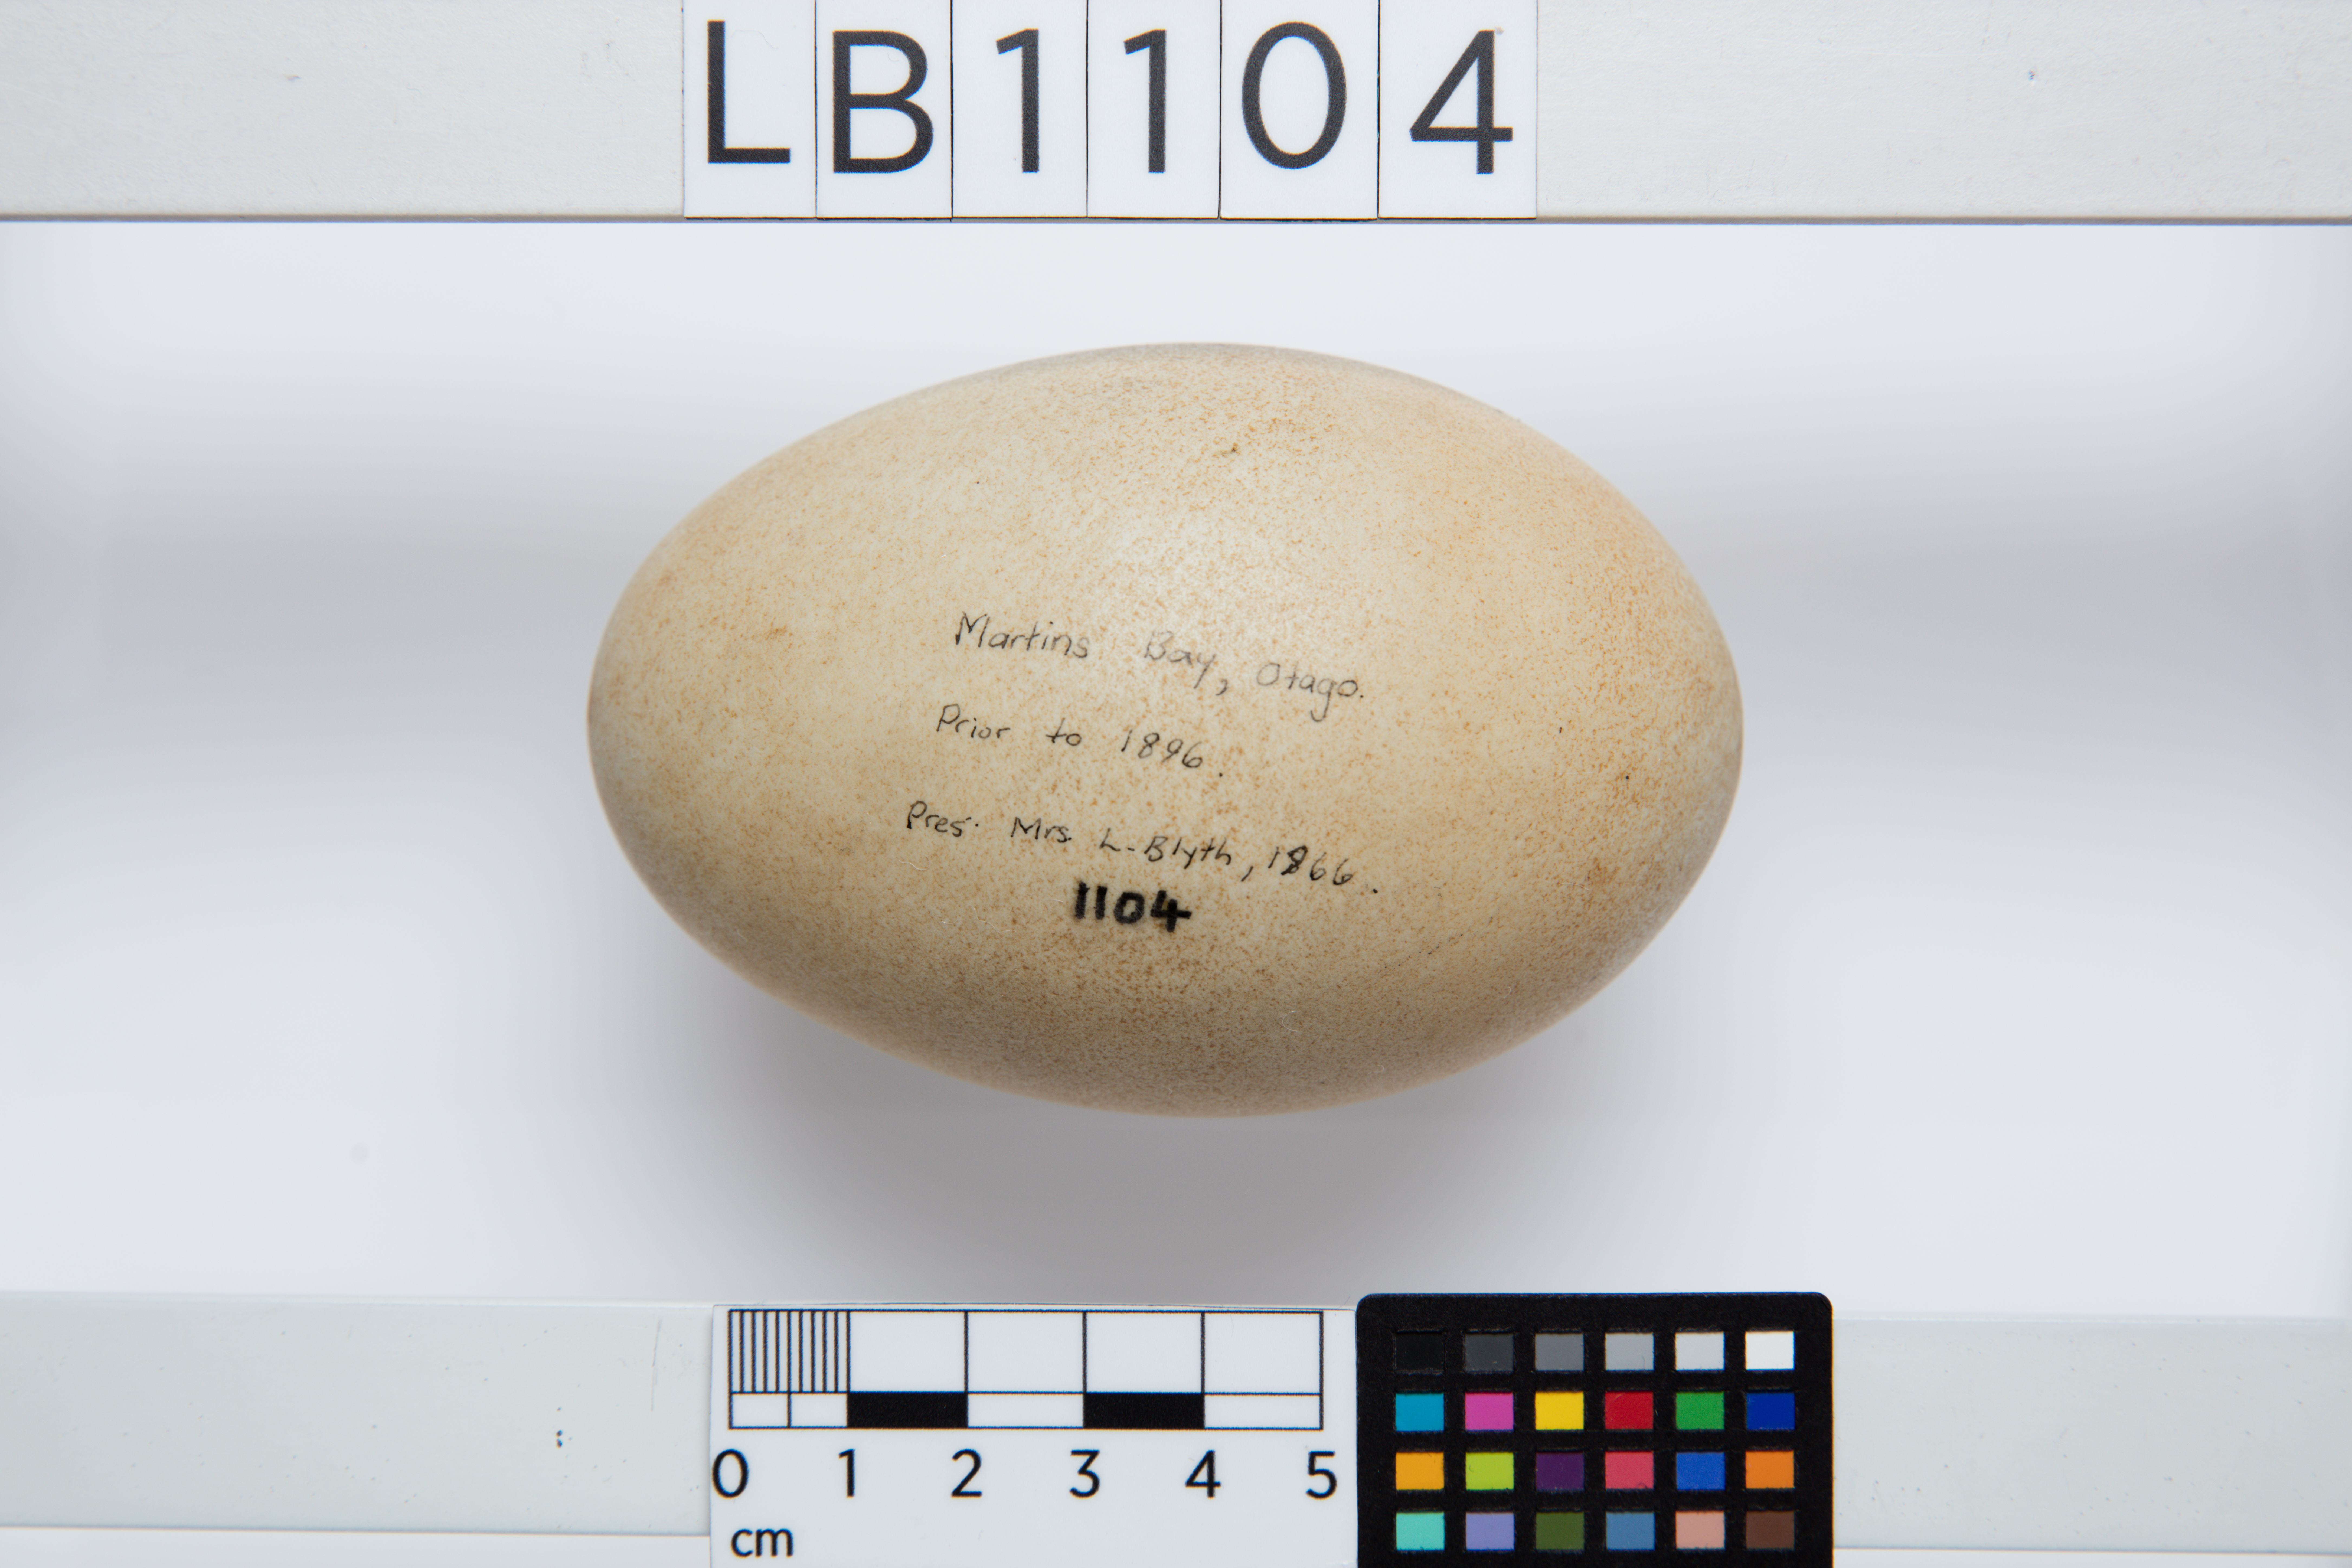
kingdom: Animalia
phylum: Chordata
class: Aves
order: Anseriformes
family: Anatidae
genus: Cygnus
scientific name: Cygnus atratus
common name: Black swan
